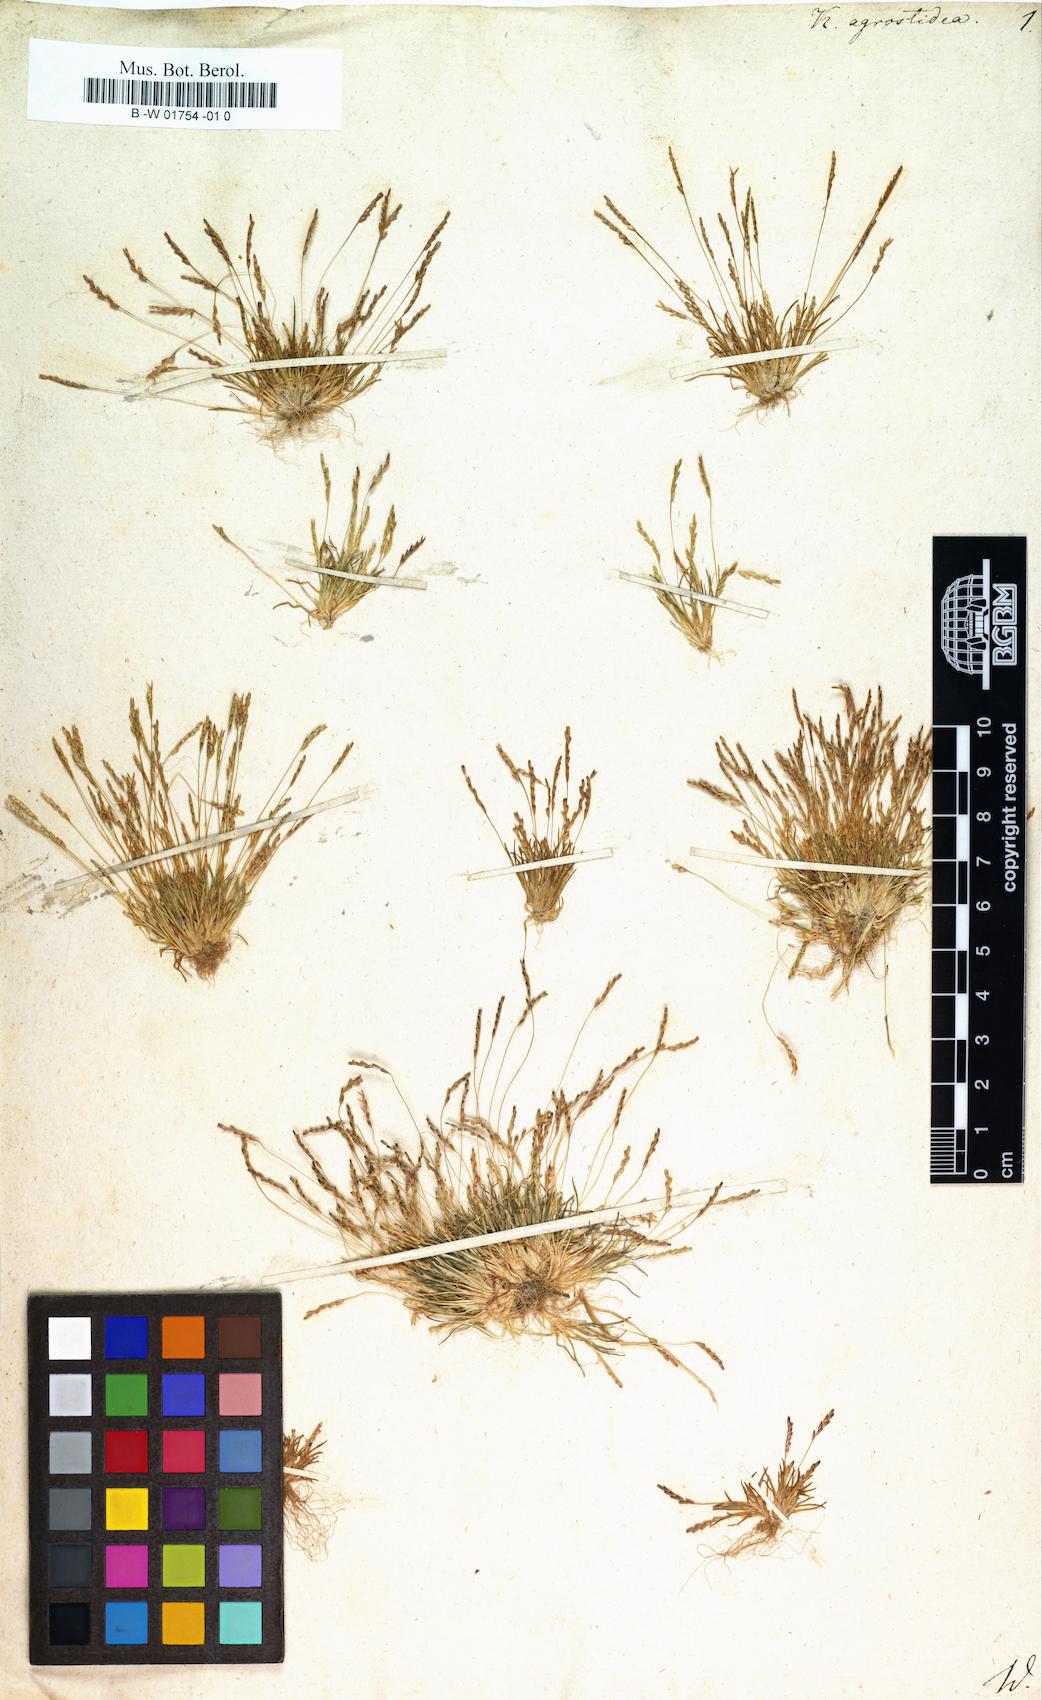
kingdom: Plantae
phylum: Tracheophyta
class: Liliopsida
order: Poales
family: Poaceae
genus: Mibora
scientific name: Mibora minima
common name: Early sand-grass
